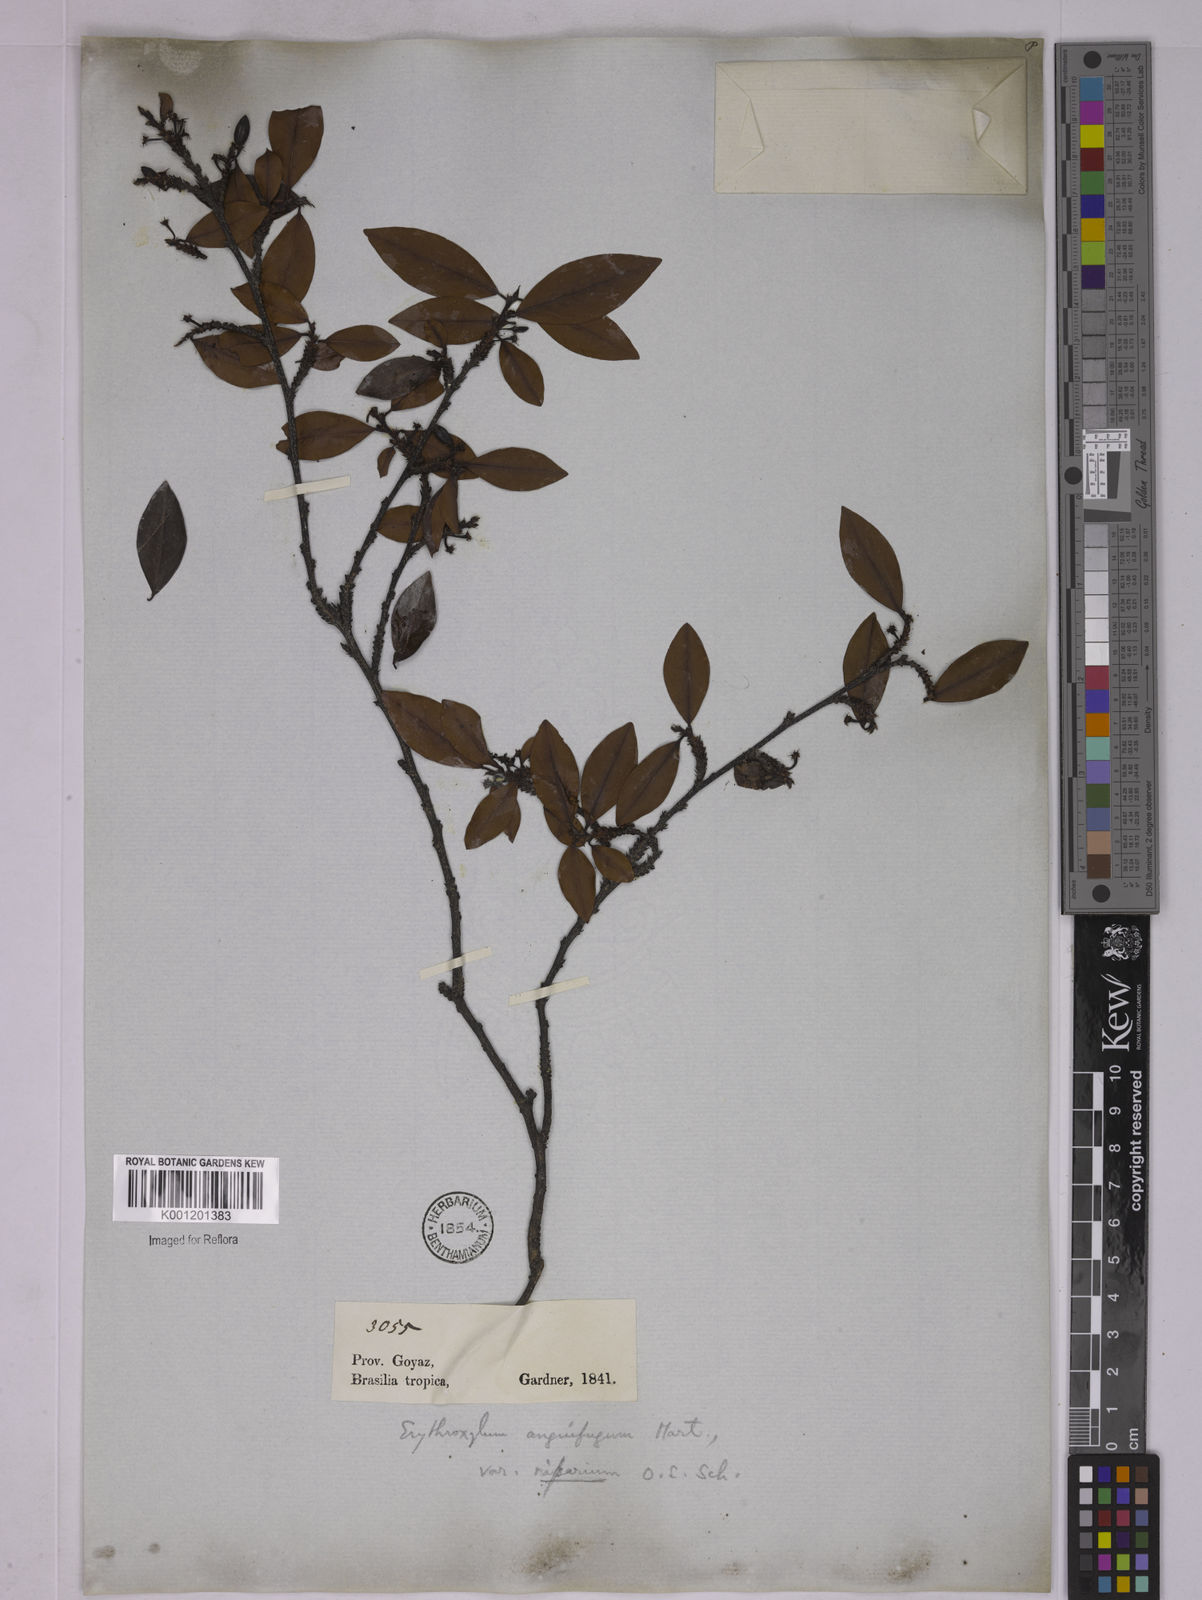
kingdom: Plantae
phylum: Tracheophyta
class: Magnoliopsida
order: Malpighiales
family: Erythroxylaceae
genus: Erythroxylum
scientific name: Erythroxylum anguifugum
